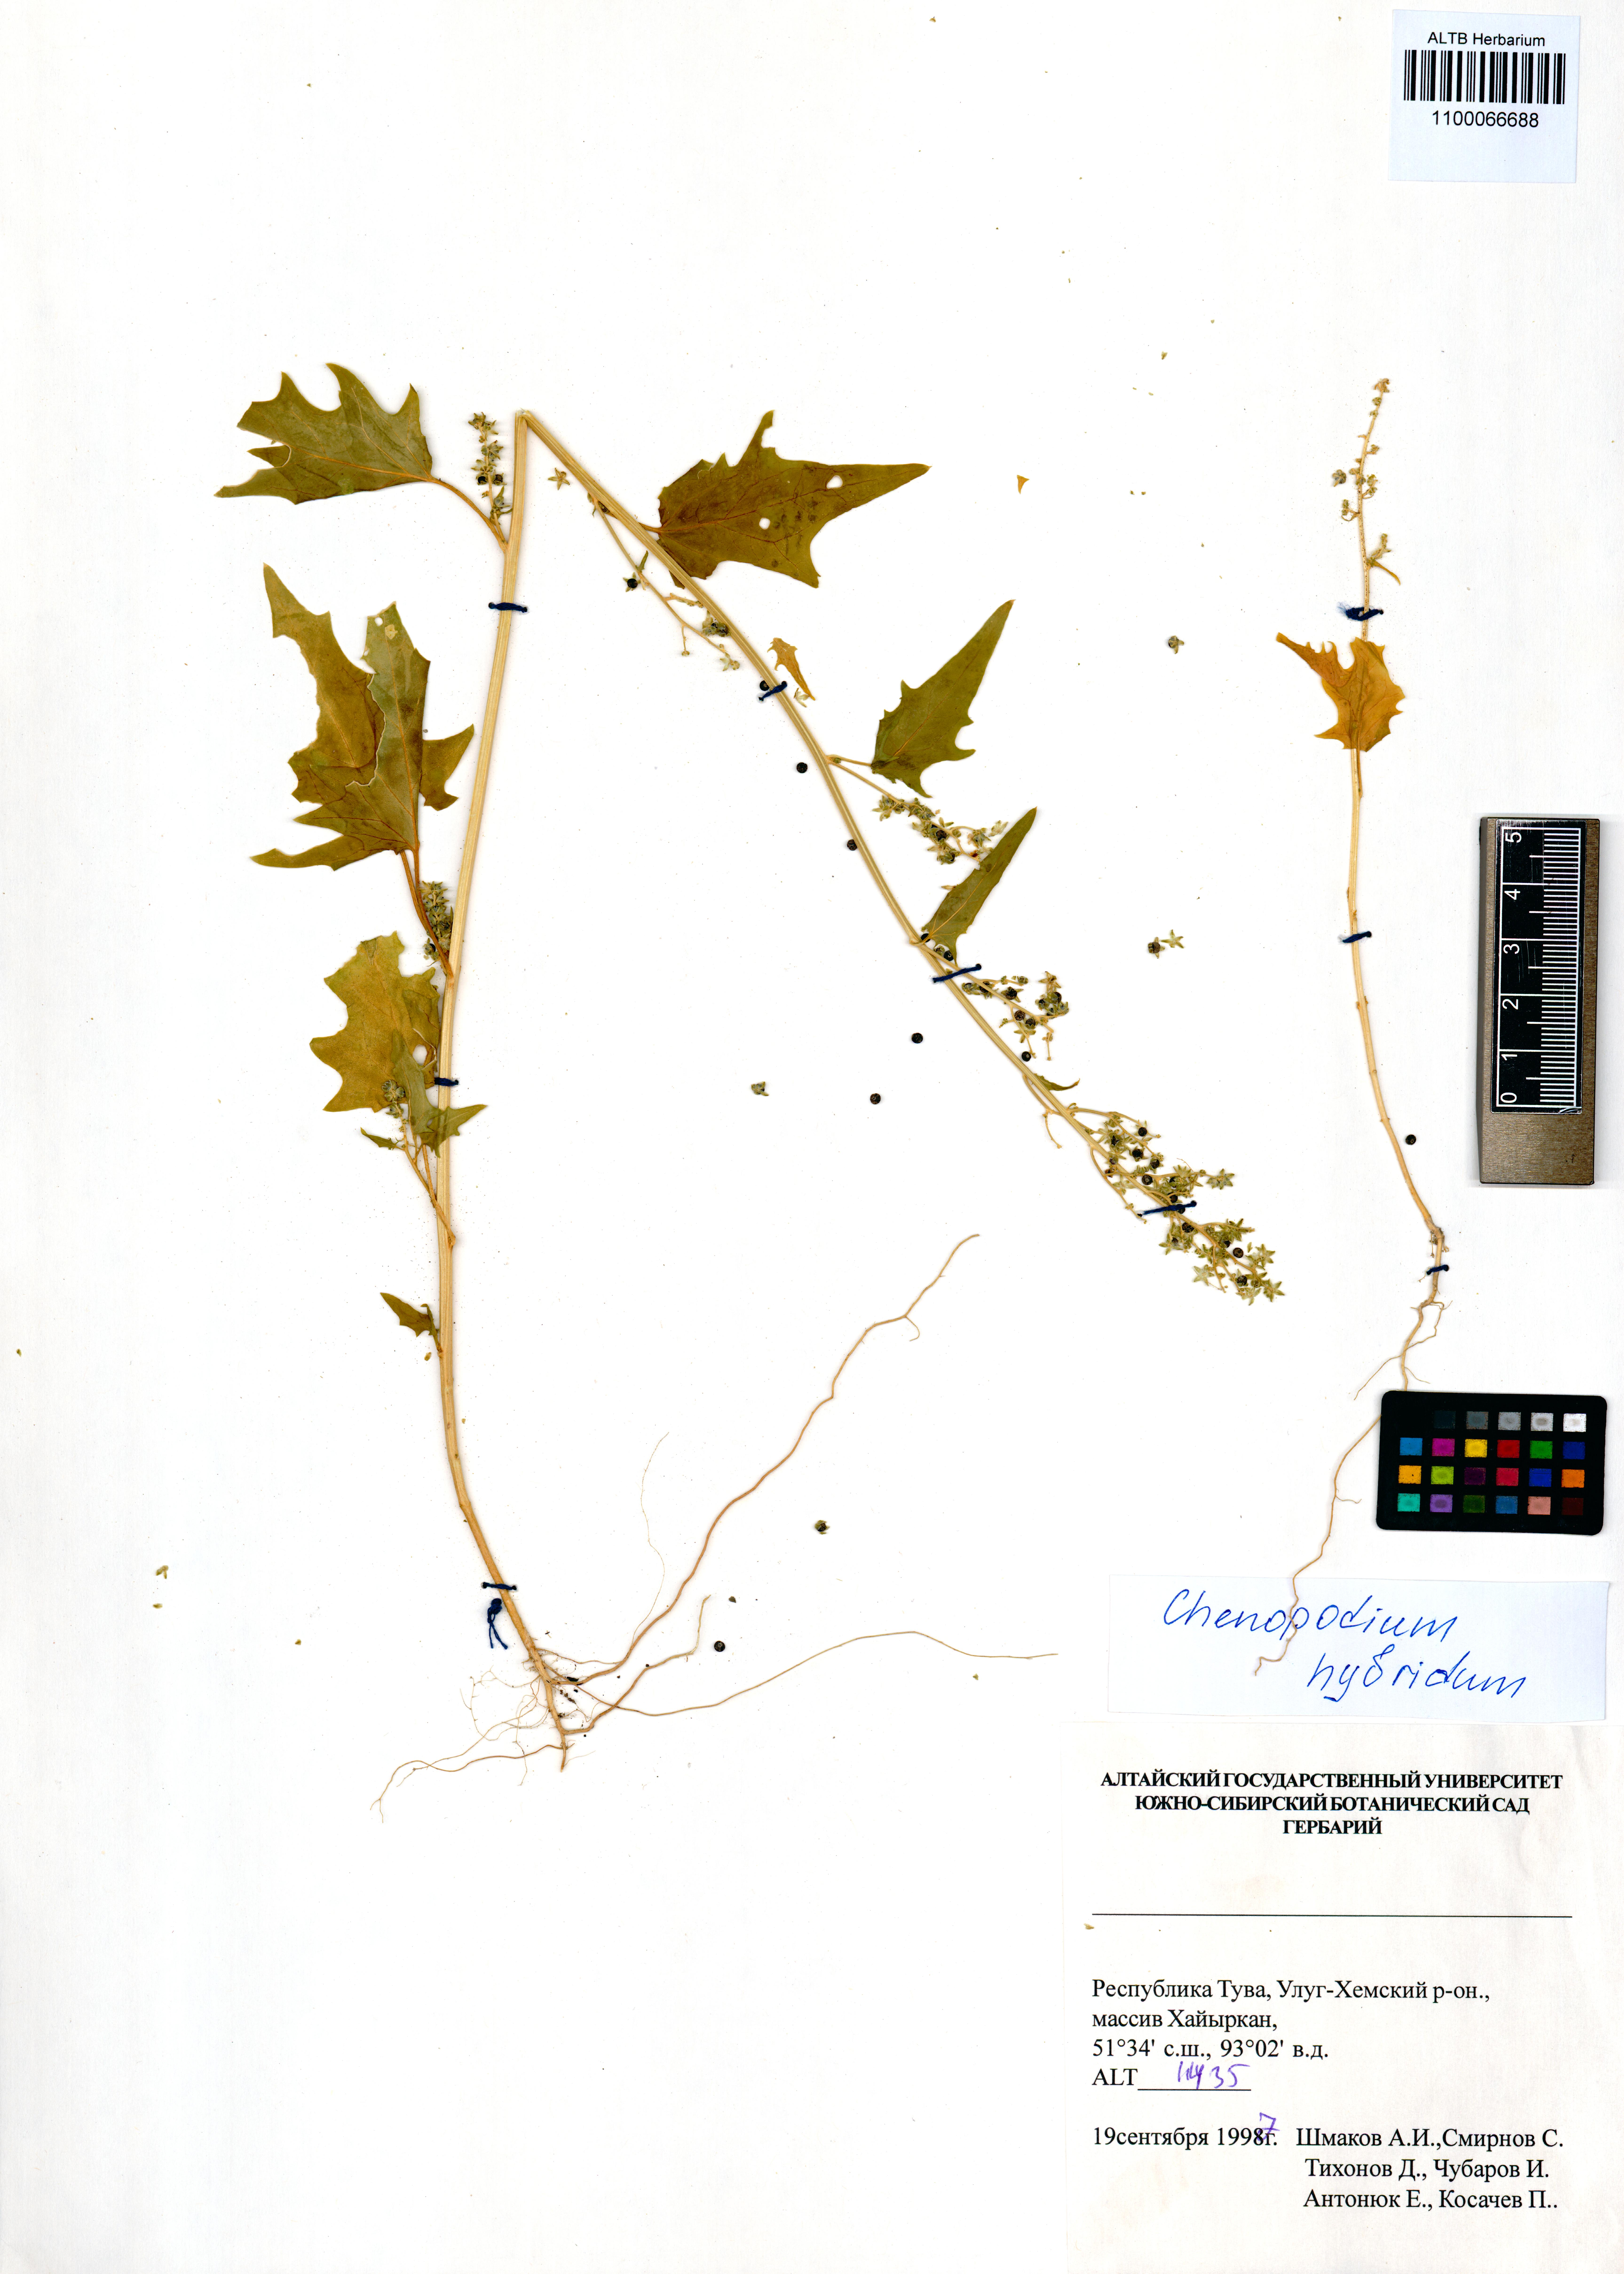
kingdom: Plantae
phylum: Tracheophyta
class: Magnoliopsida
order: Caryophyllales
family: Amaranthaceae
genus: Chenopodiastrum
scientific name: Chenopodiastrum hybridum
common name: Mapleleaf goosefoot
